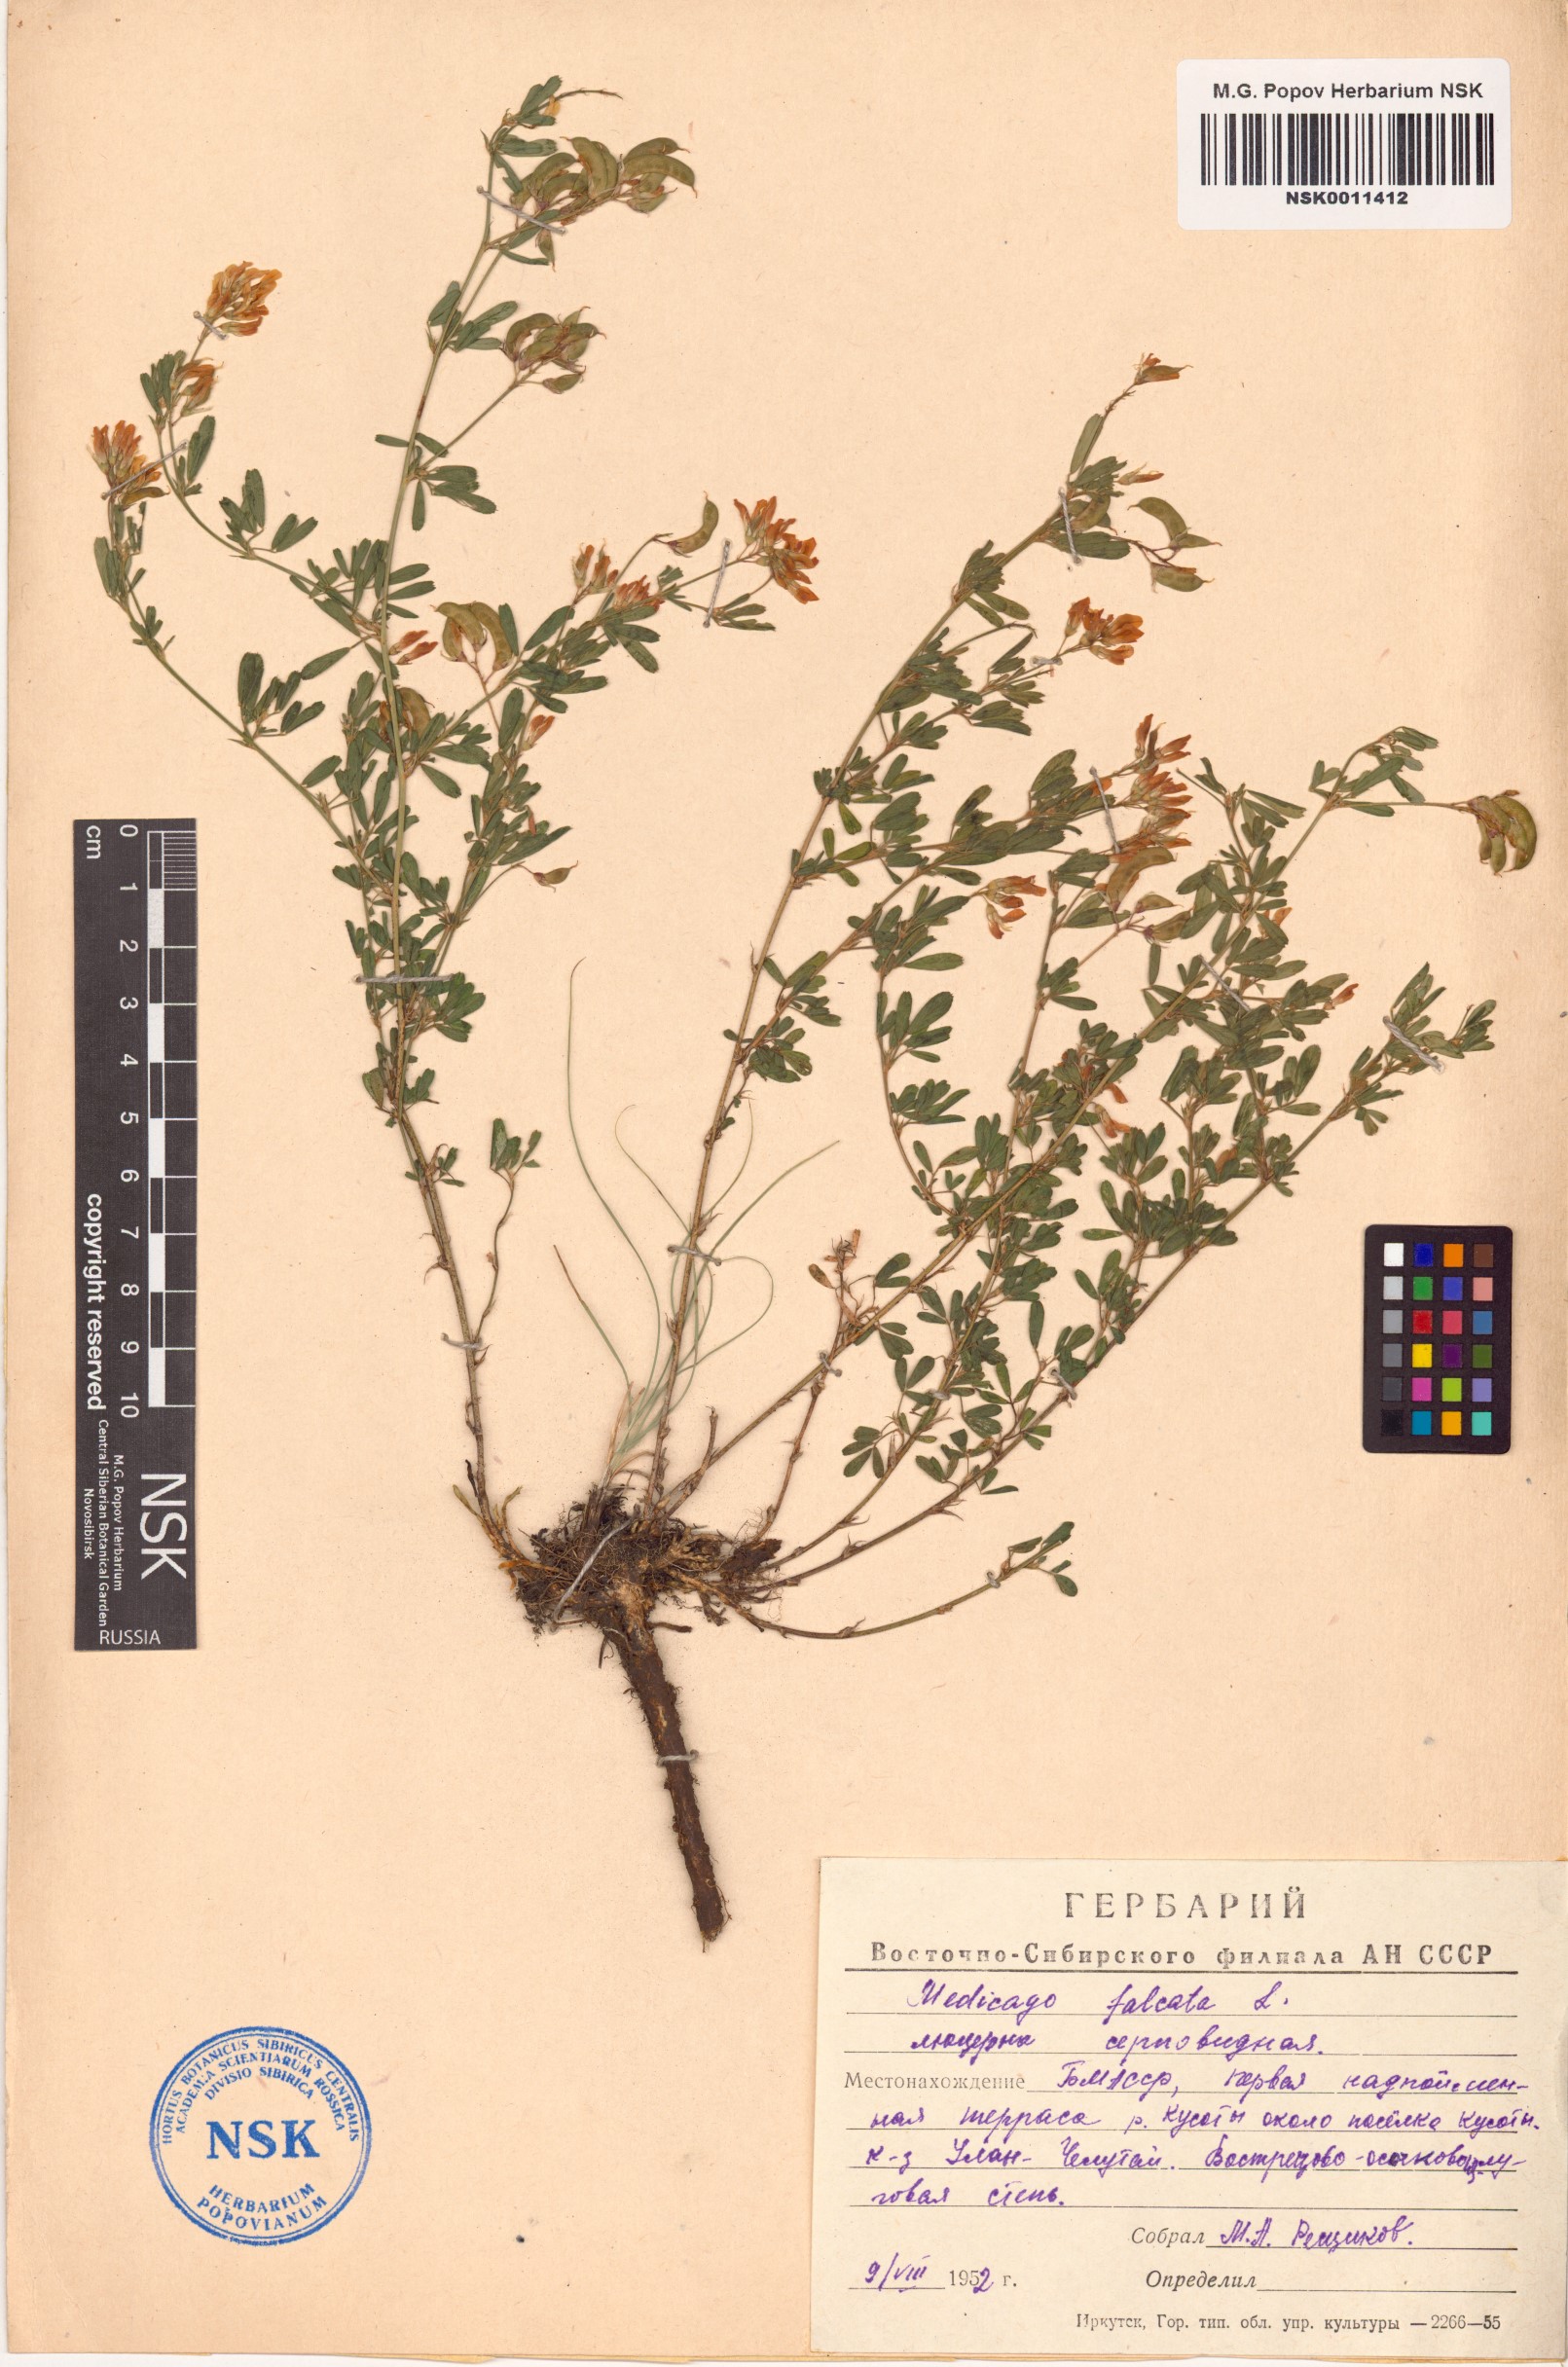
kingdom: Plantae
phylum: Tracheophyta
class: Magnoliopsida
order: Fabales
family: Fabaceae
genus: Medicago
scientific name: Medicago falcata
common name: Sickle medick
